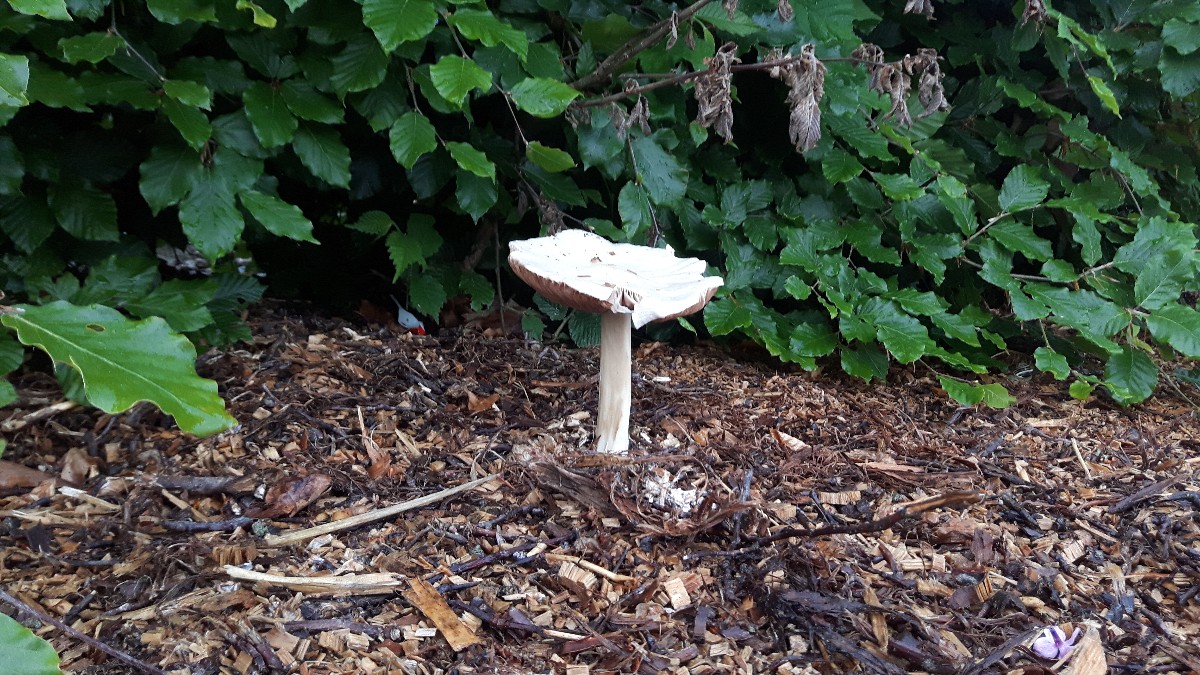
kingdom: Fungi
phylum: Basidiomycota
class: Agaricomycetes
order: Agaricales
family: Pluteaceae
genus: Volvopluteus
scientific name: Volvopluteus gloiocephalus
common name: høj posesvamp
